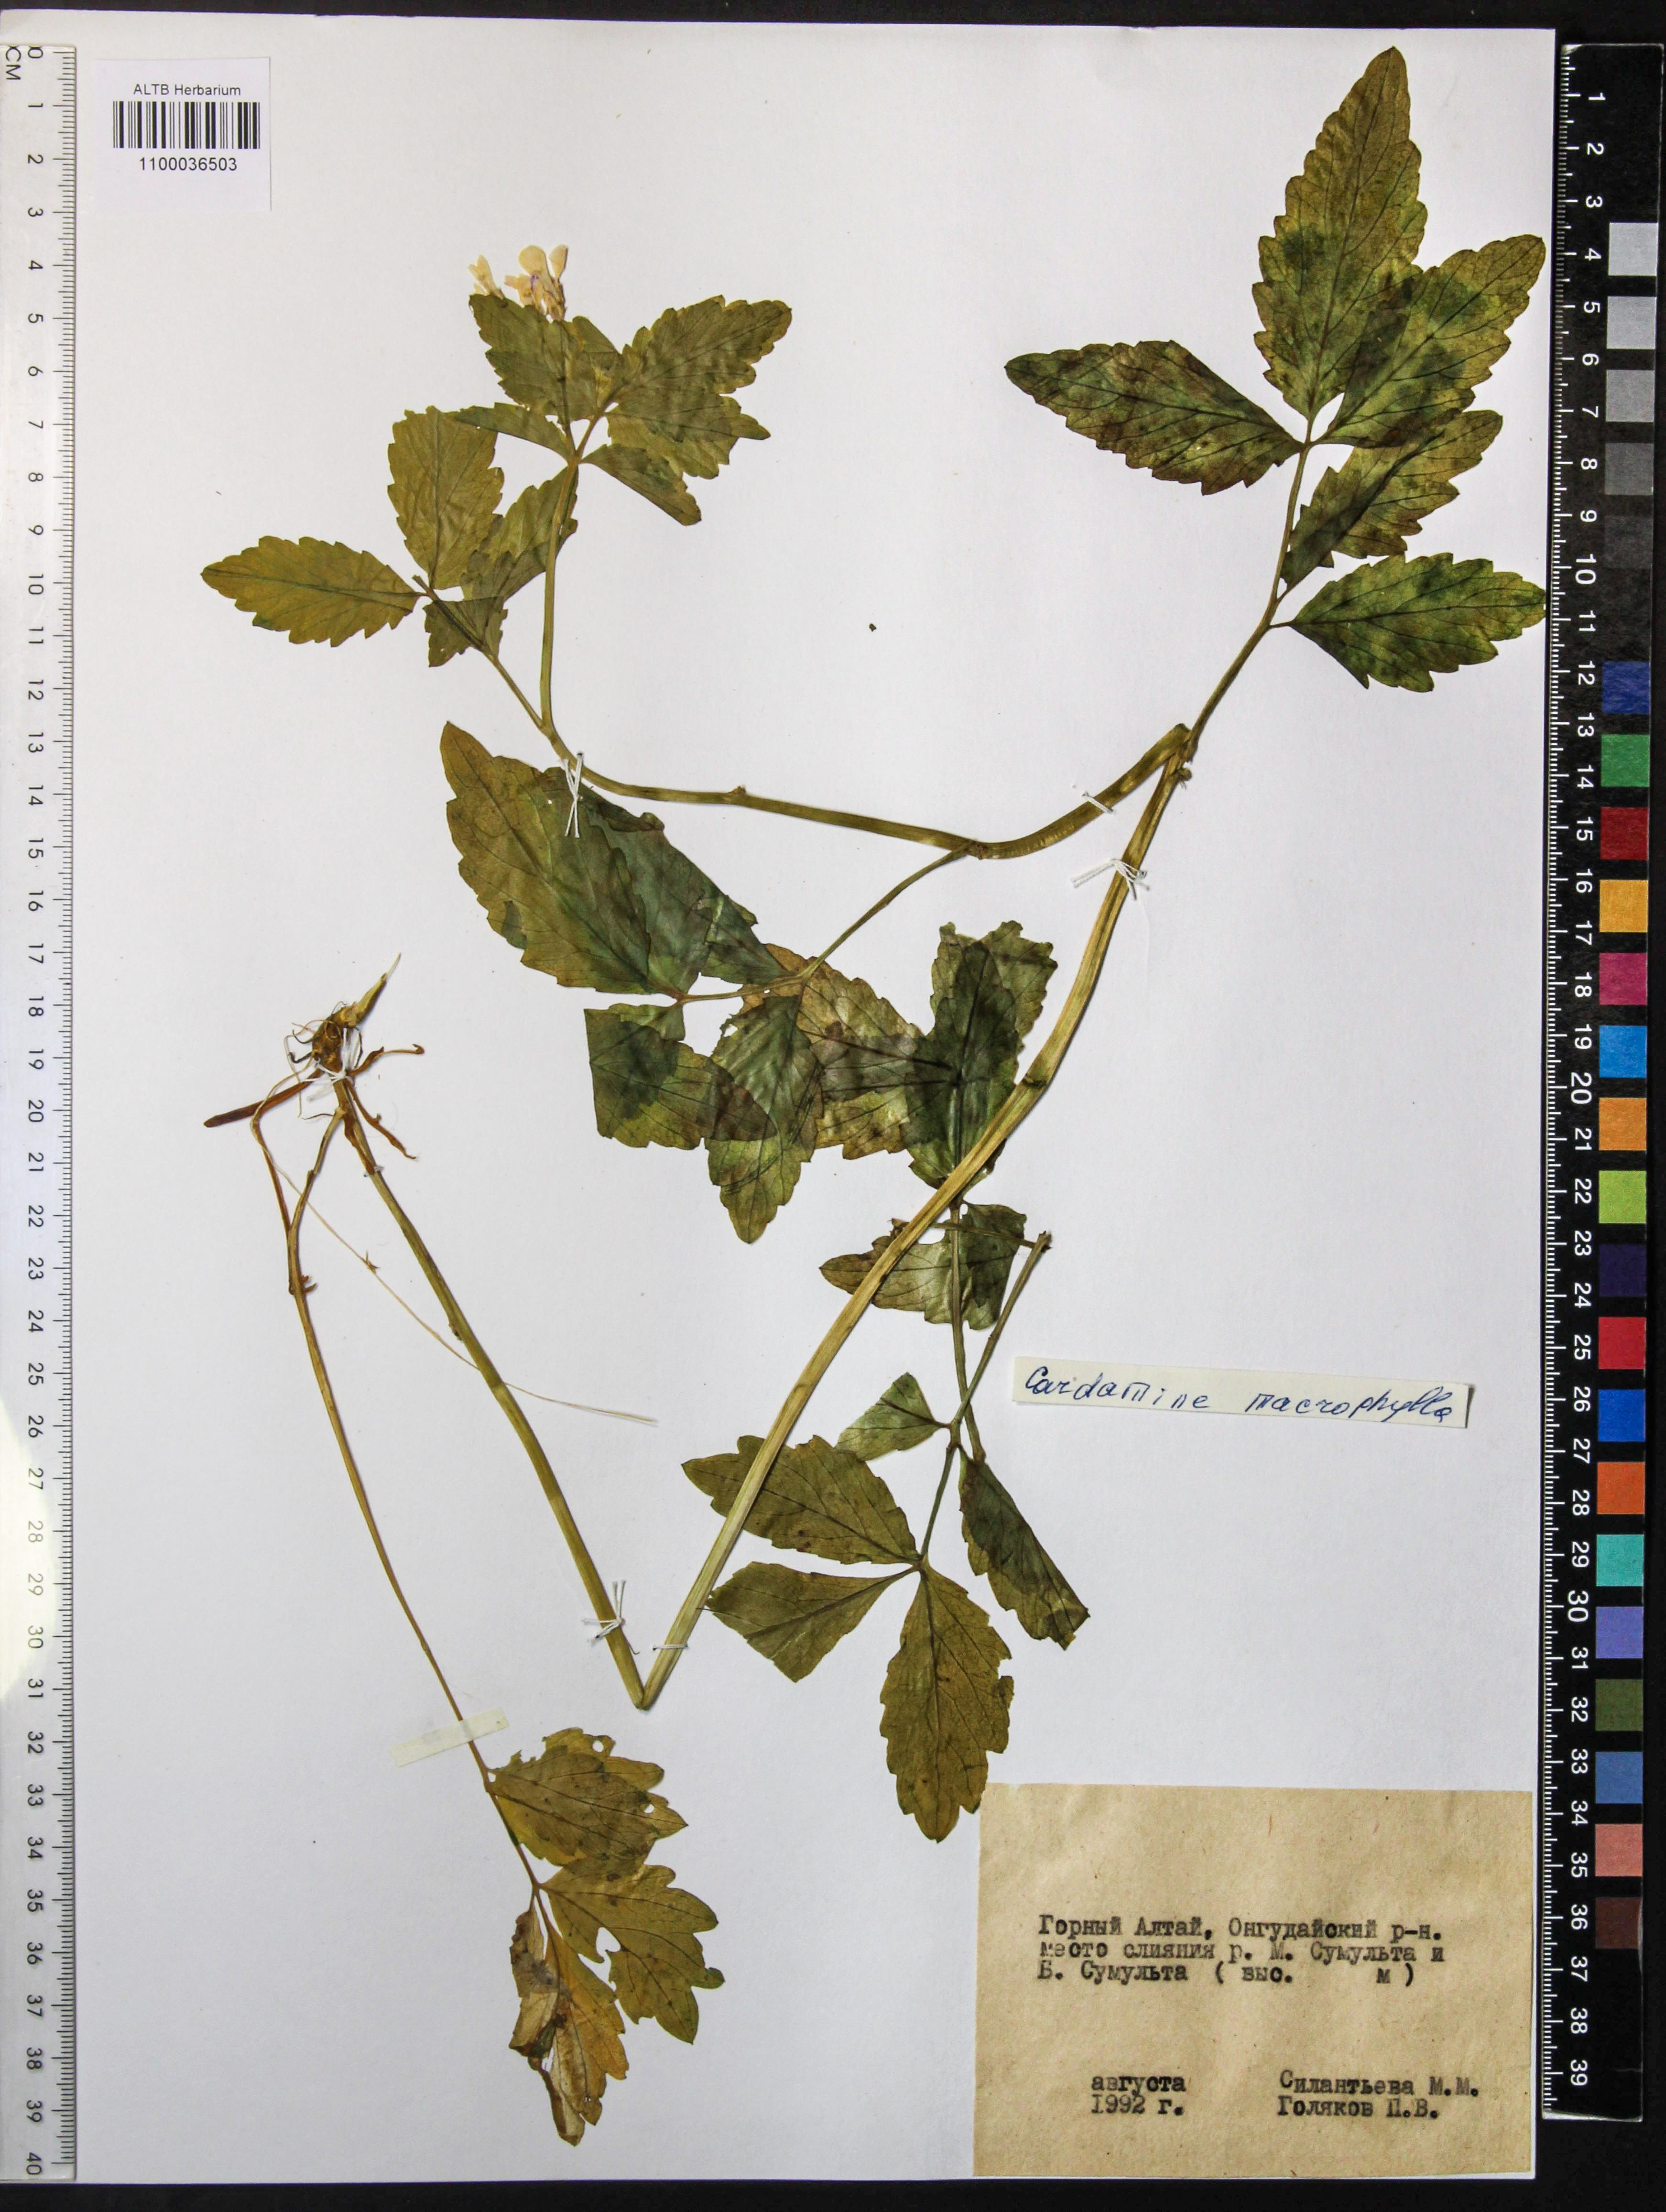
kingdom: Plantae
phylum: Tracheophyta
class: Magnoliopsida
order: Brassicales
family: Brassicaceae
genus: Cardamine
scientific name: Cardamine macrophylla
